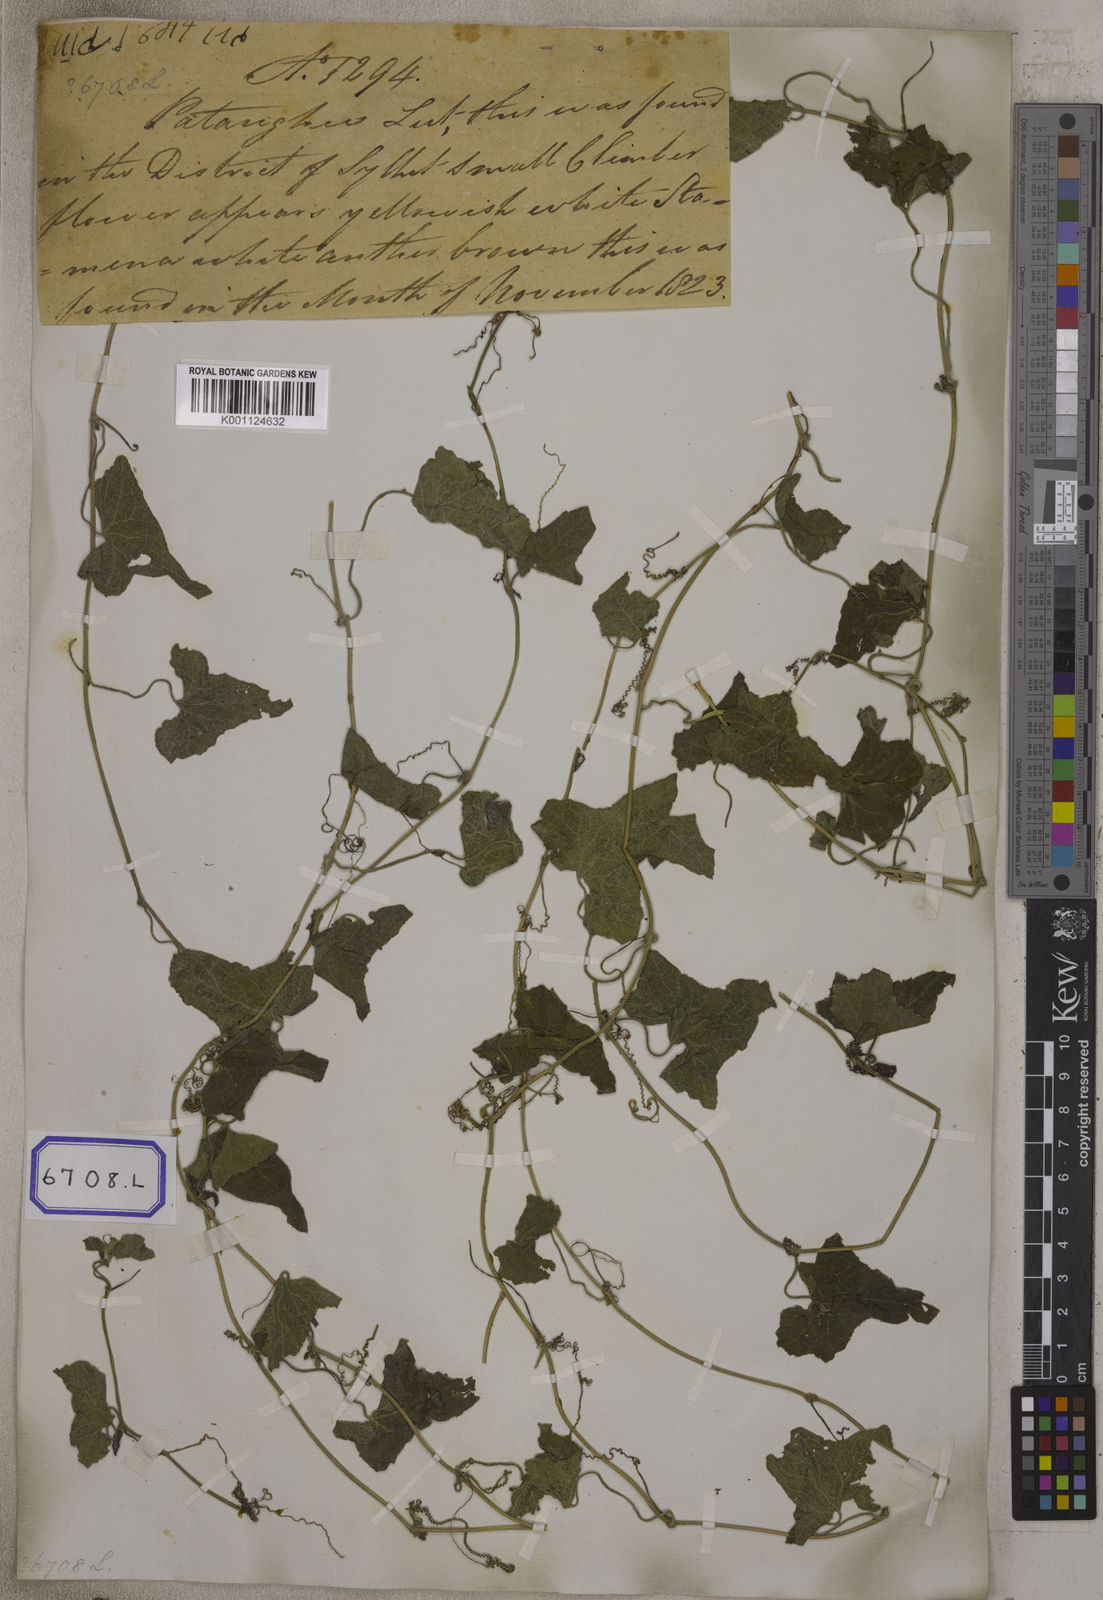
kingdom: Plantae
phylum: Tracheophyta
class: Magnoliopsida
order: Cucurbitales
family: Cucurbitaceae
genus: Bryonia
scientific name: Bryonia
